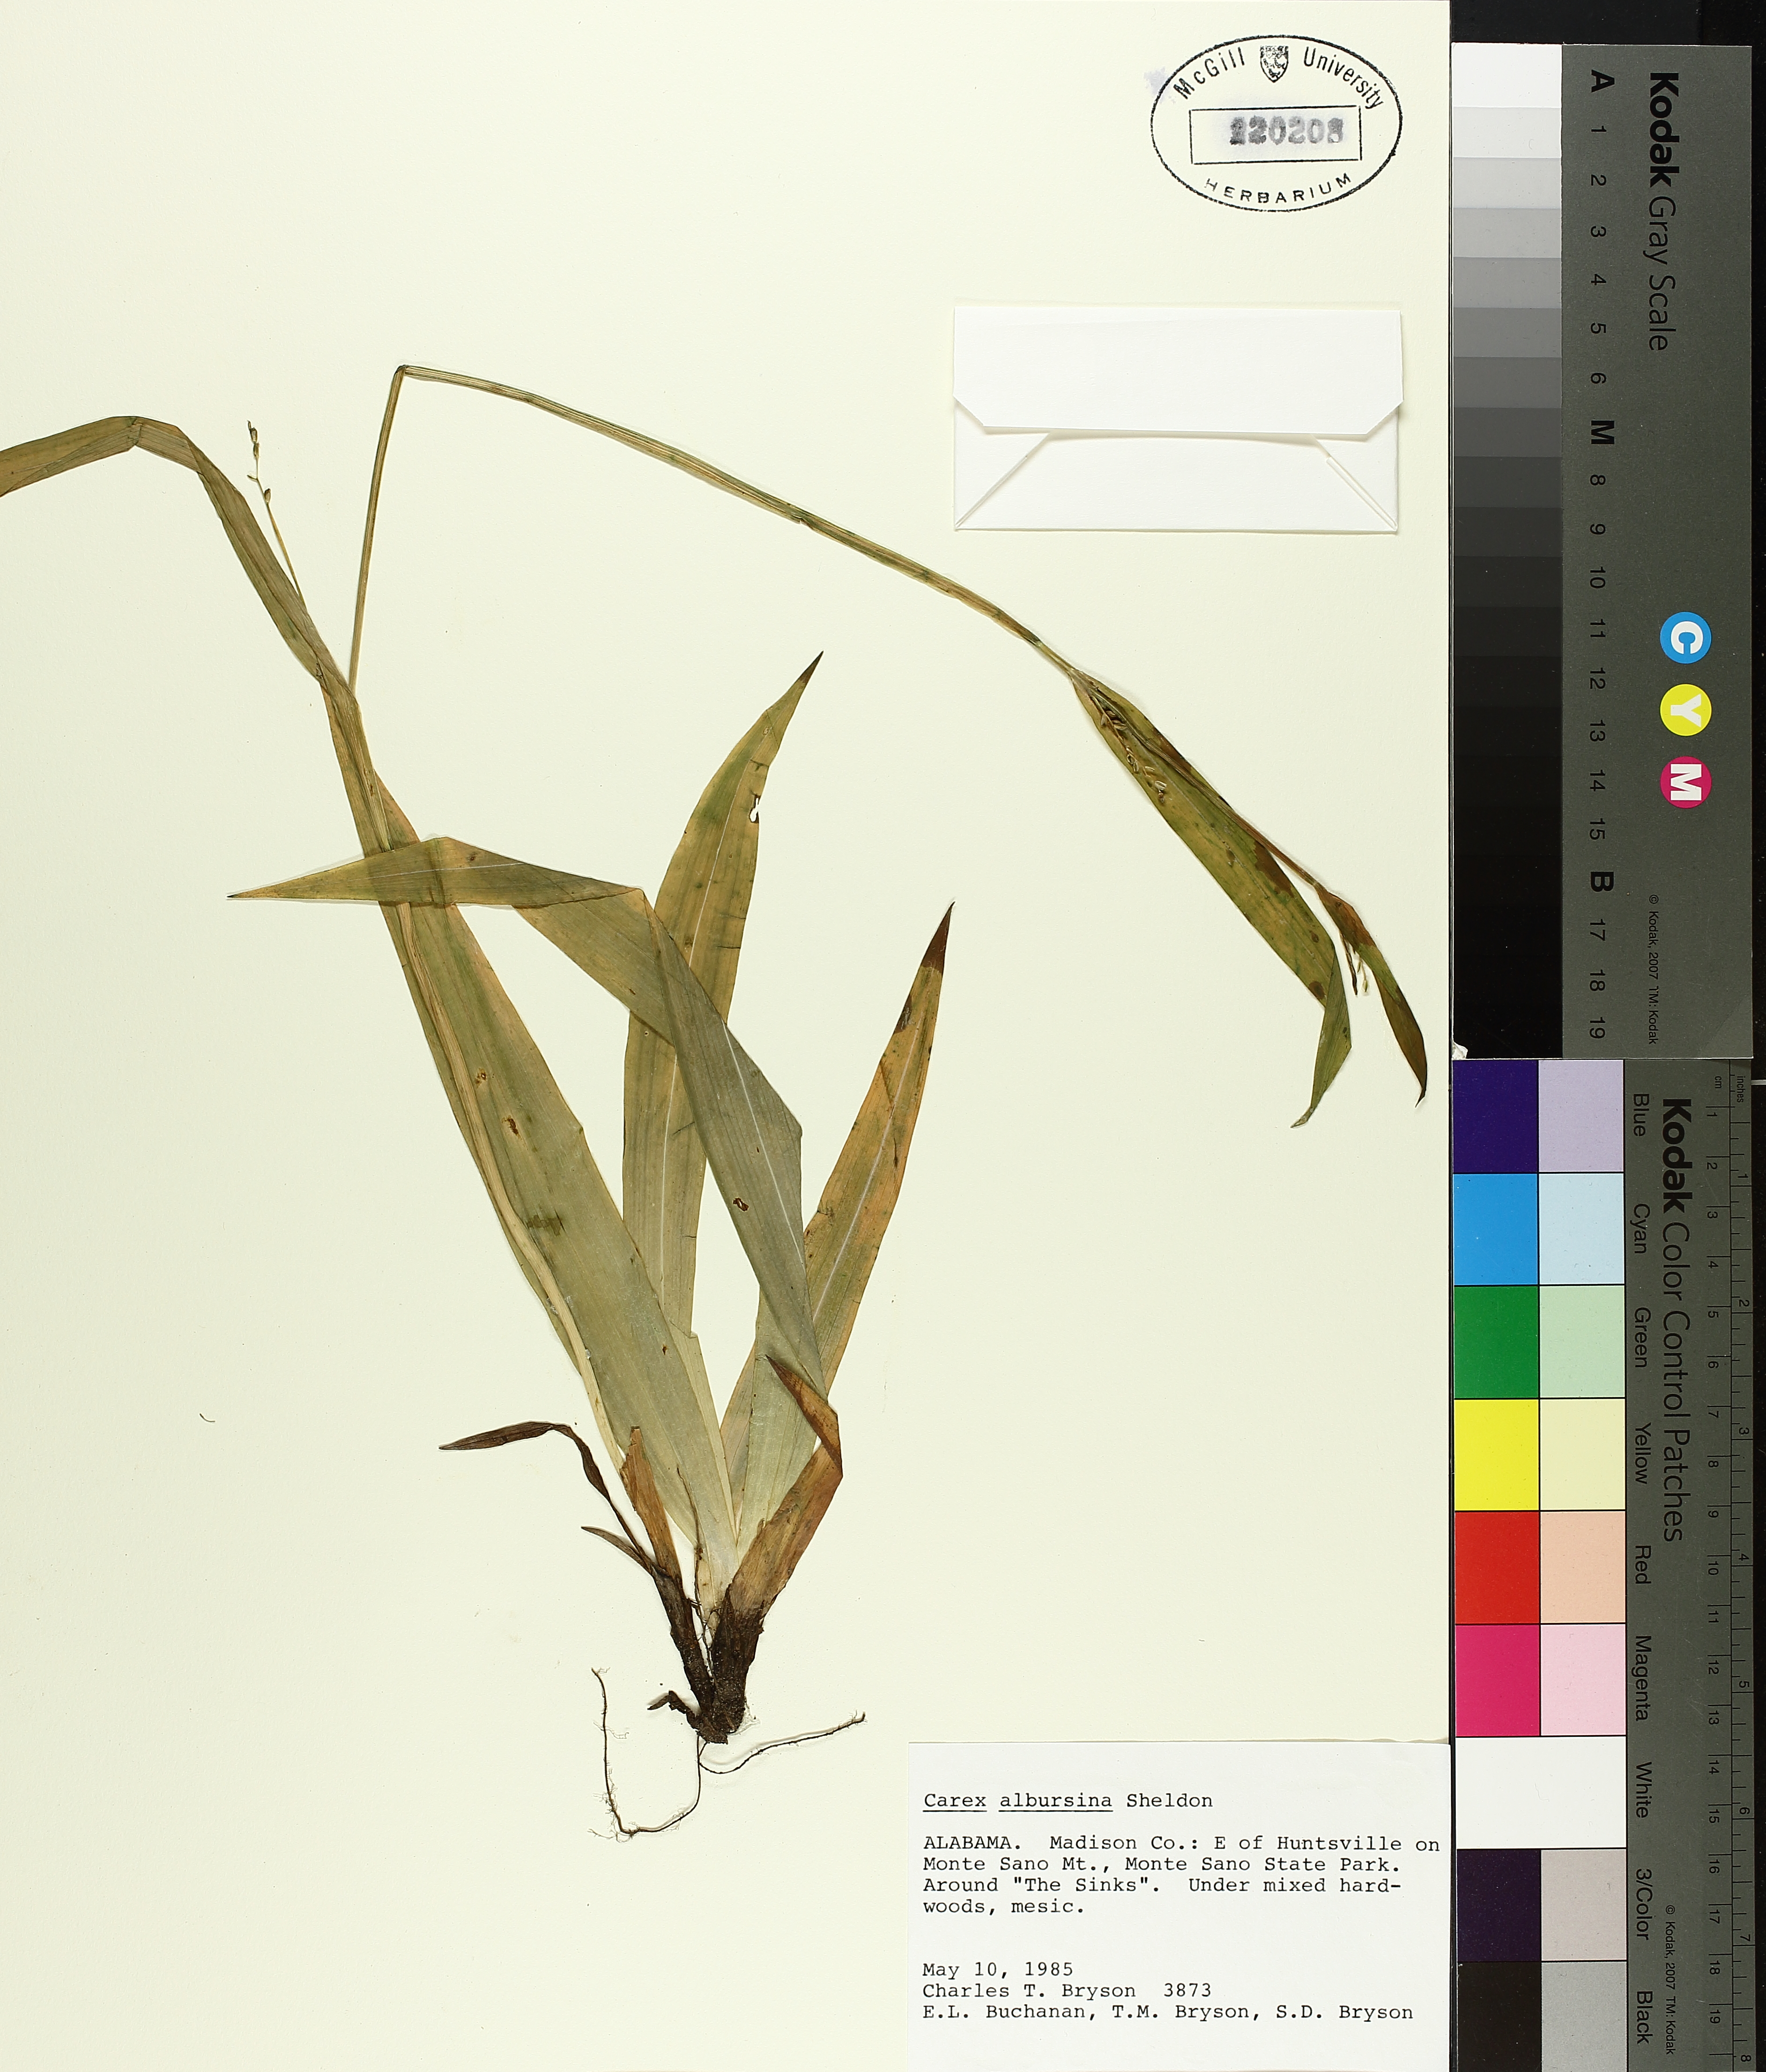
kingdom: Plantae
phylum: Tracheophyta
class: Liliopsida
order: Poales
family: Cyperaceae
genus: Carex
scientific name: Carex albursina
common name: Blunt-scale wood sedge
